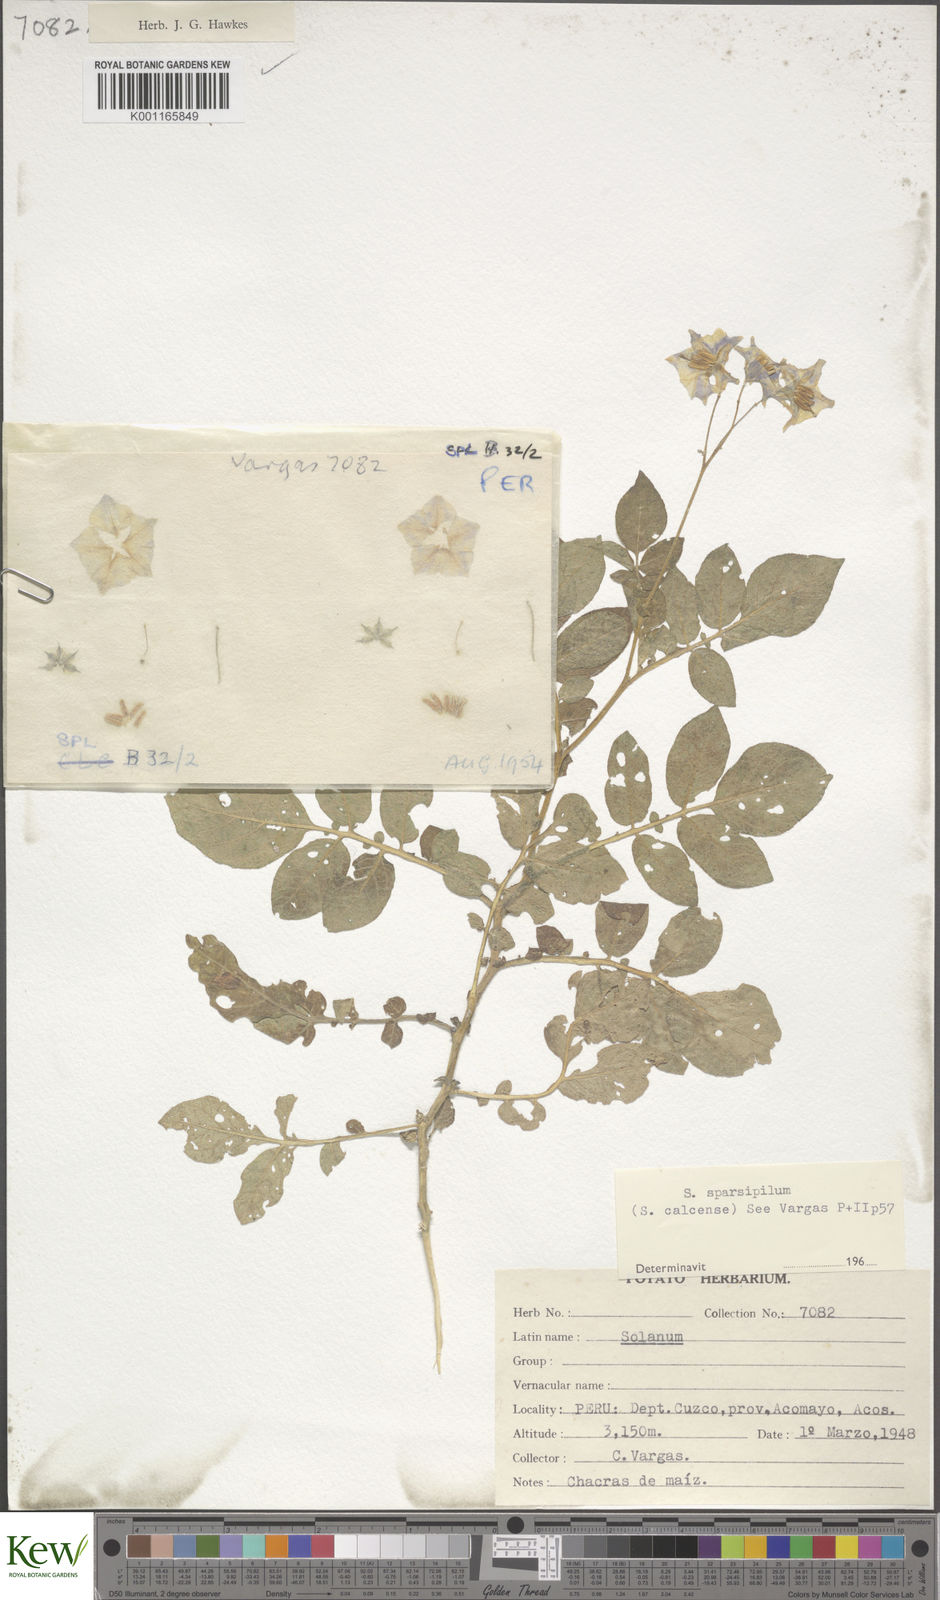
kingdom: Plantae
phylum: Tracheophyta
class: Magnoliopsida
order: Solanales
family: Solanaceae
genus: Solanum
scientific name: Solanum brevicaule
